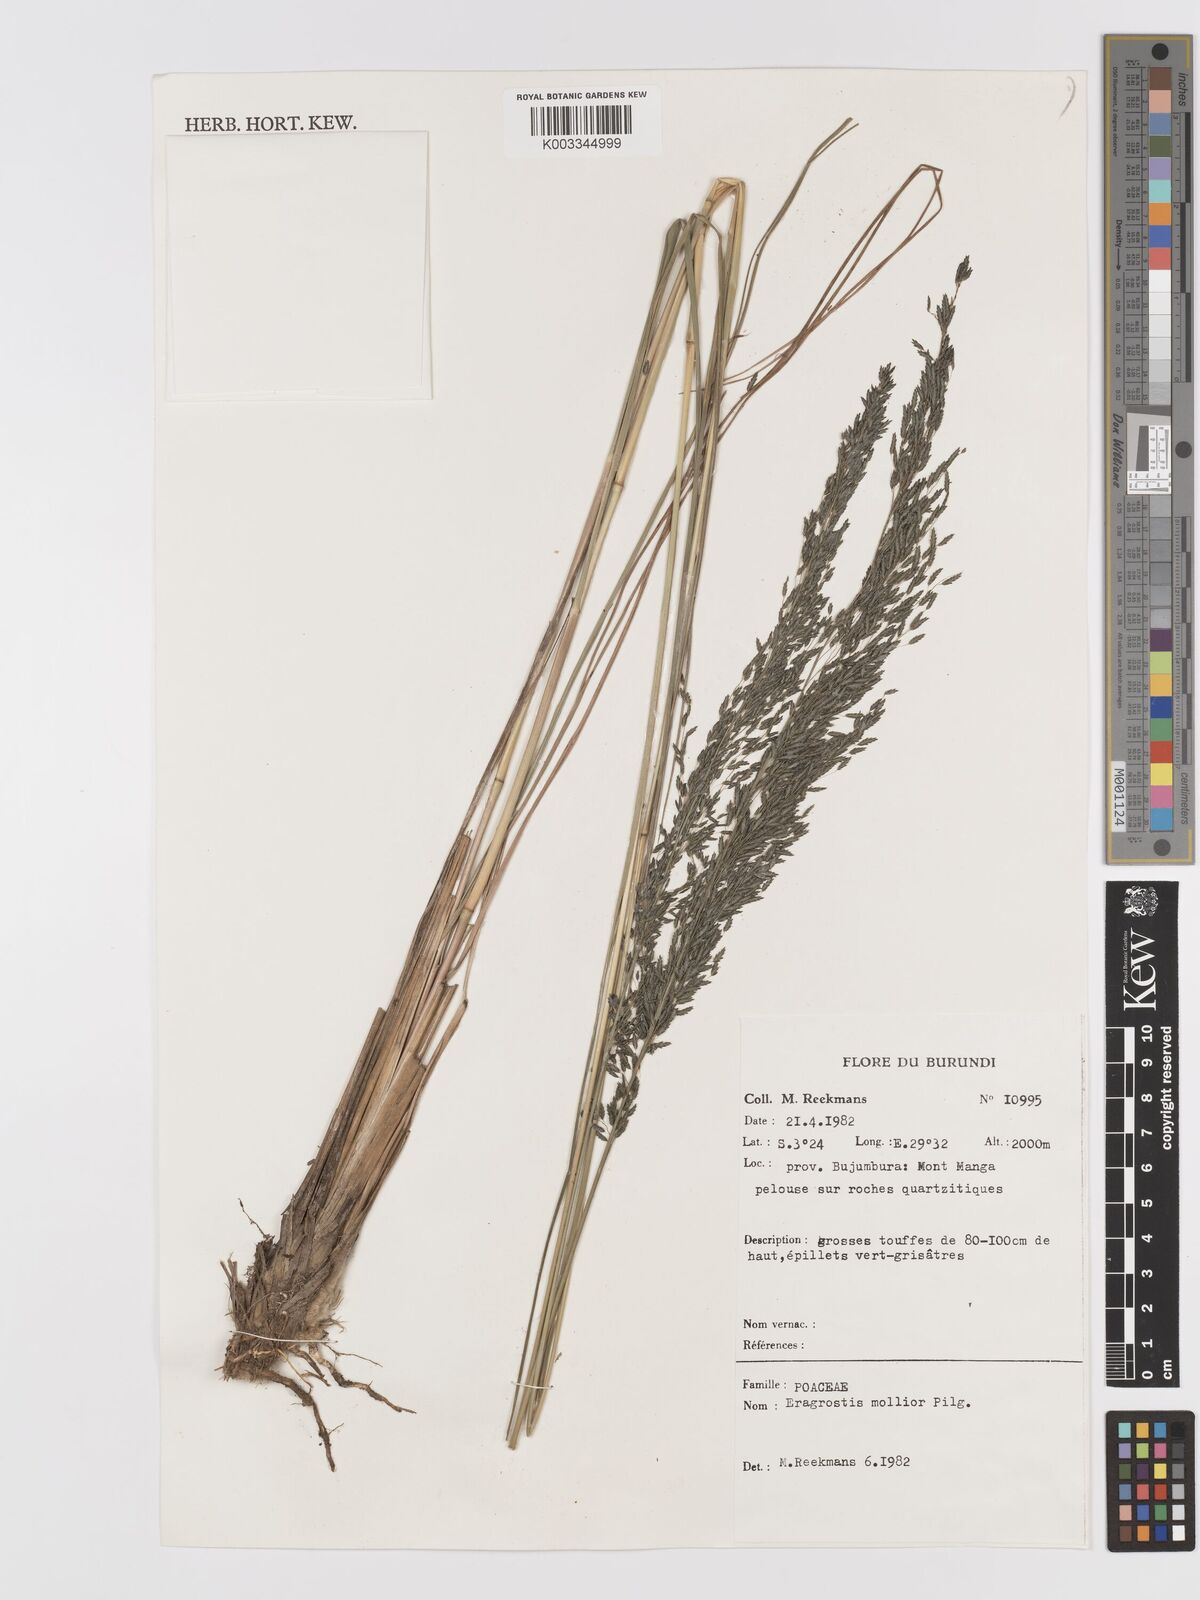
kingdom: Plantae
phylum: Tracheophyta
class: Liliopsida
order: Poales
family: Poaceae
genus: Eragrostis
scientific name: Eragrostis mollior
